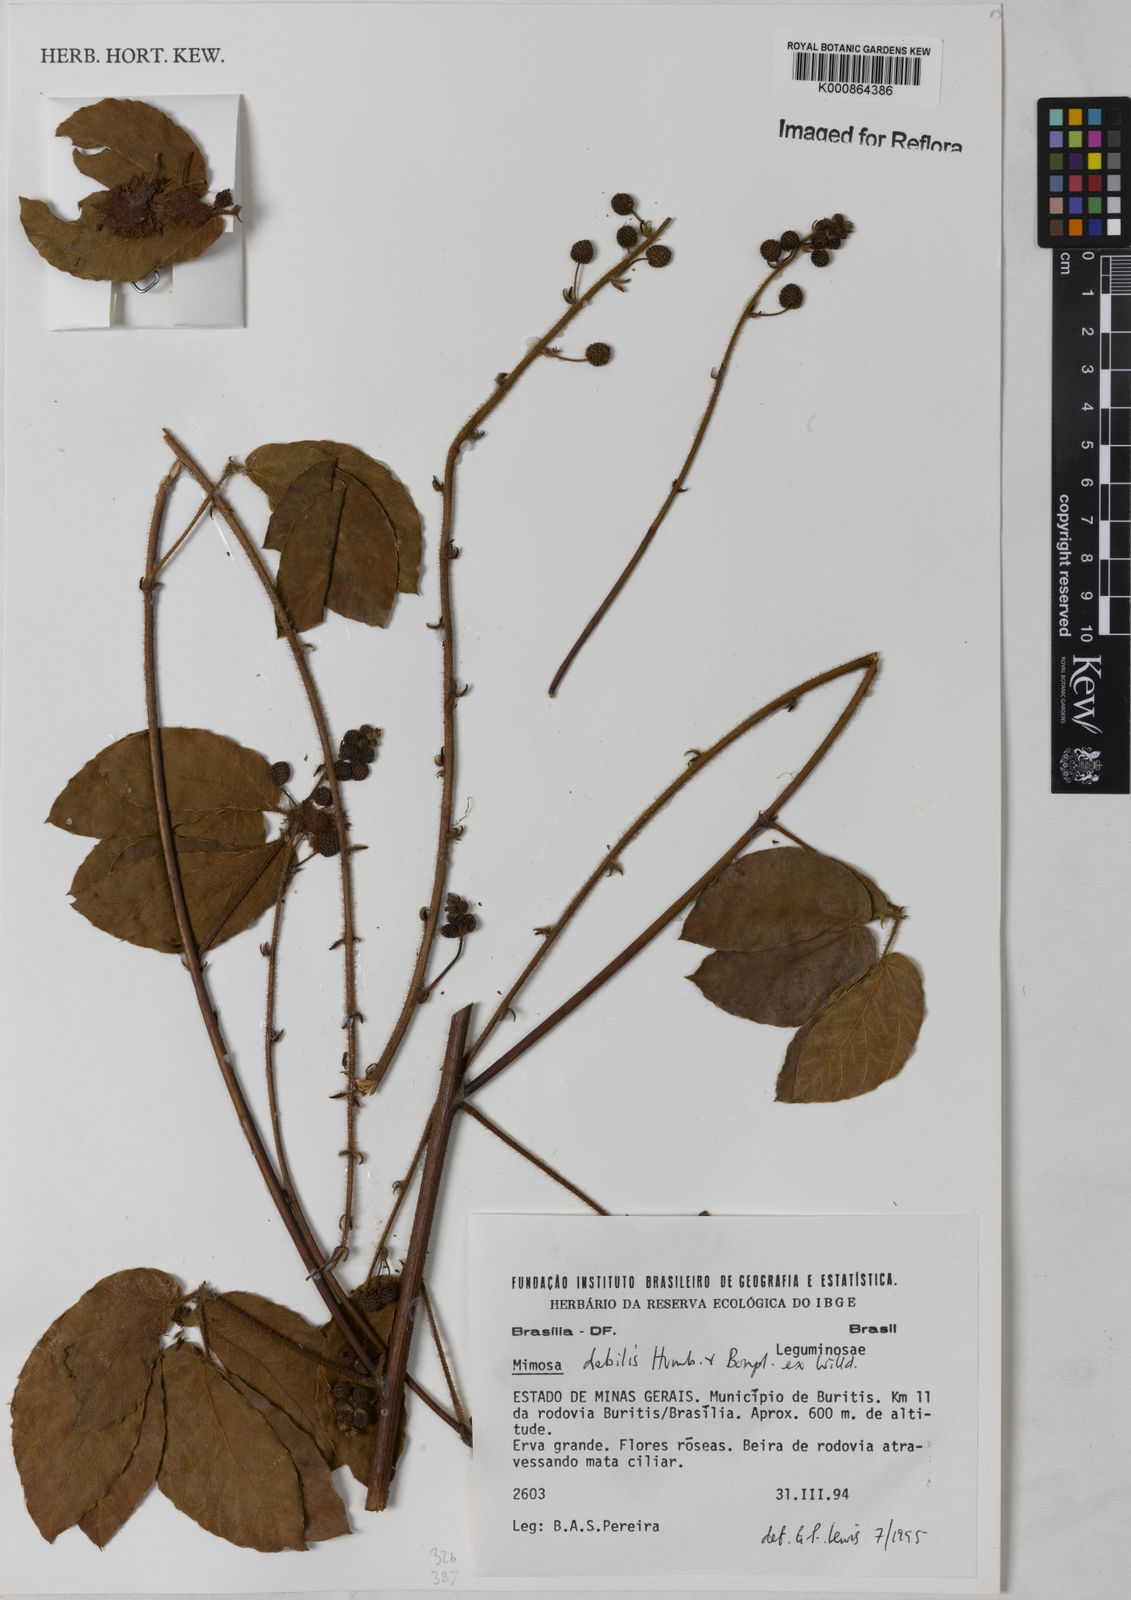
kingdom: Plantae
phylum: Tracheophyta
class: Magnoliopsida
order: Fabales
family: Fabaceae
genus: Mimosa
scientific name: Mimosa
